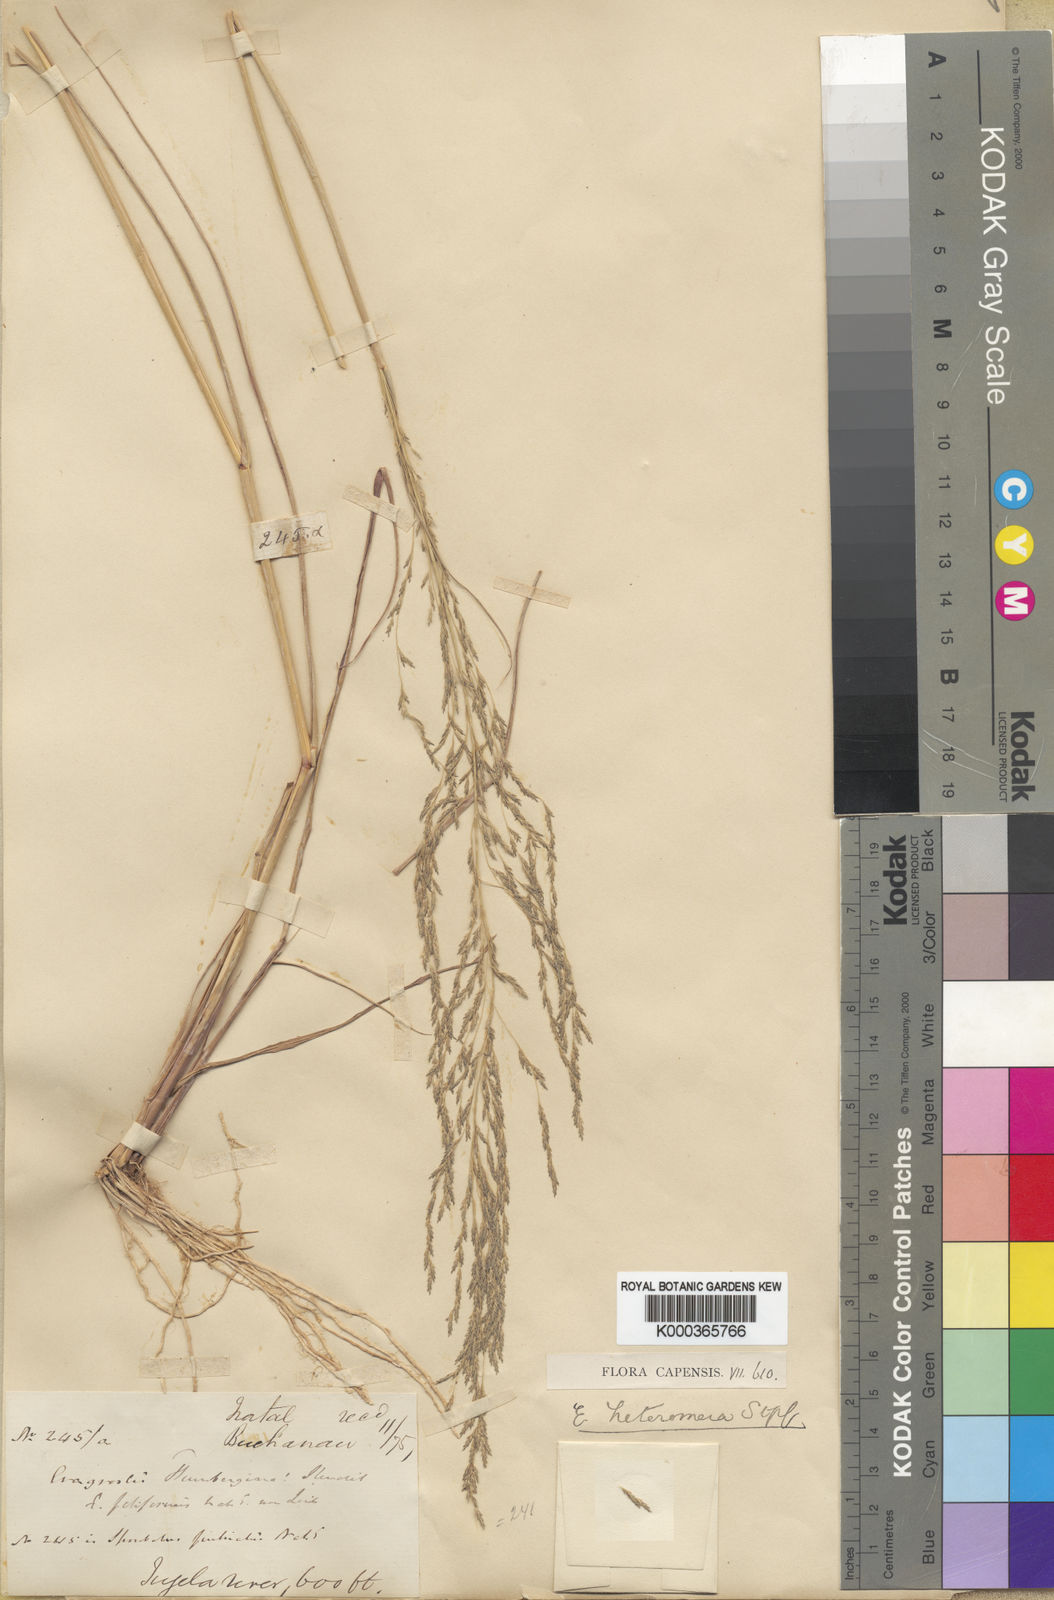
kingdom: Plantae
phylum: Tracheophyta
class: Liliopsida
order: Poales
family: Poaceae
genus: Eragrostis
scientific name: Eragrostis heteromera
